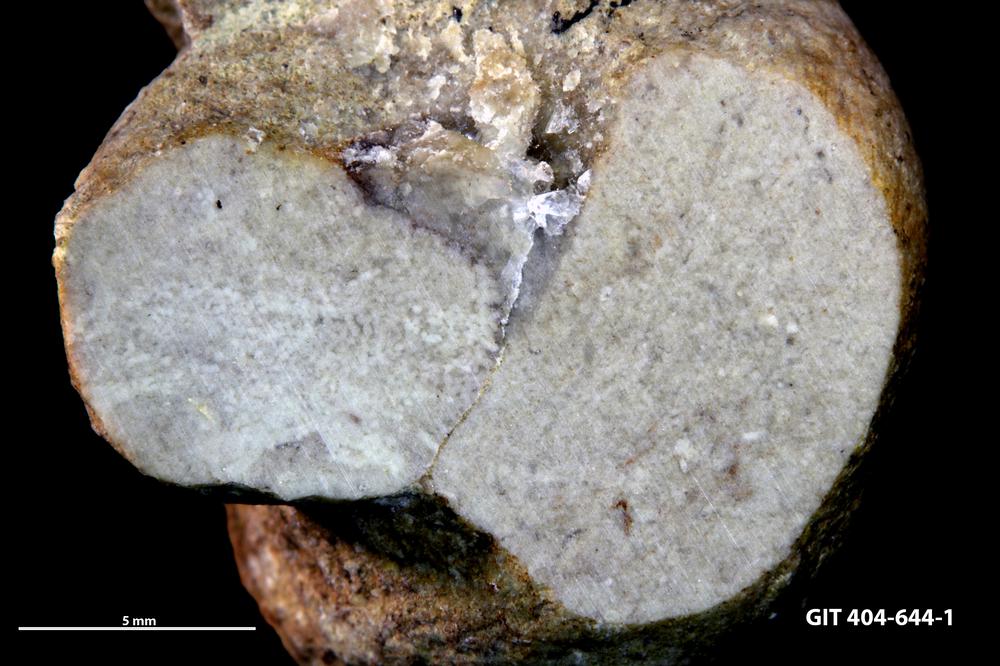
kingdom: Animalia
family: Coprulidae
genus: Coprulus
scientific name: Coprulus
